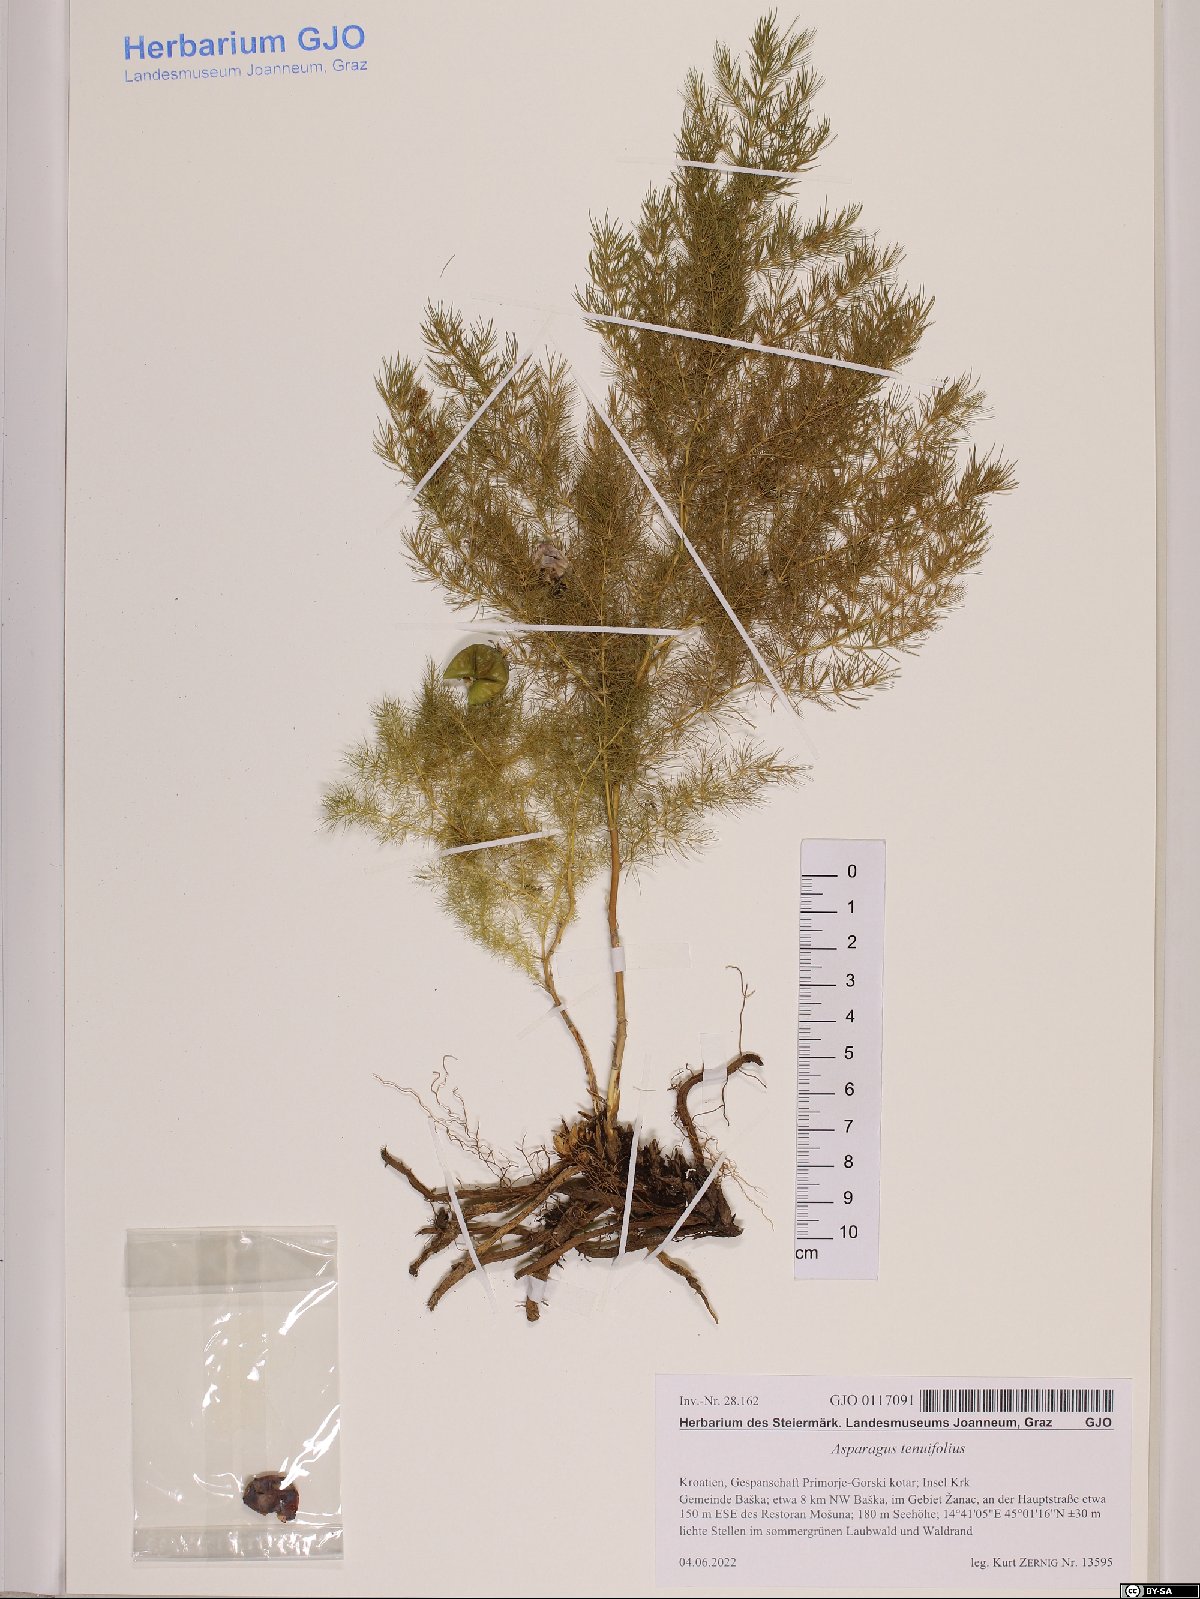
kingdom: Plantae
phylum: Tracheophyta
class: Liliopsida
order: Asparagales
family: Asparagaceae
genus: Asparagus
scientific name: Asparagus tenuifolius
